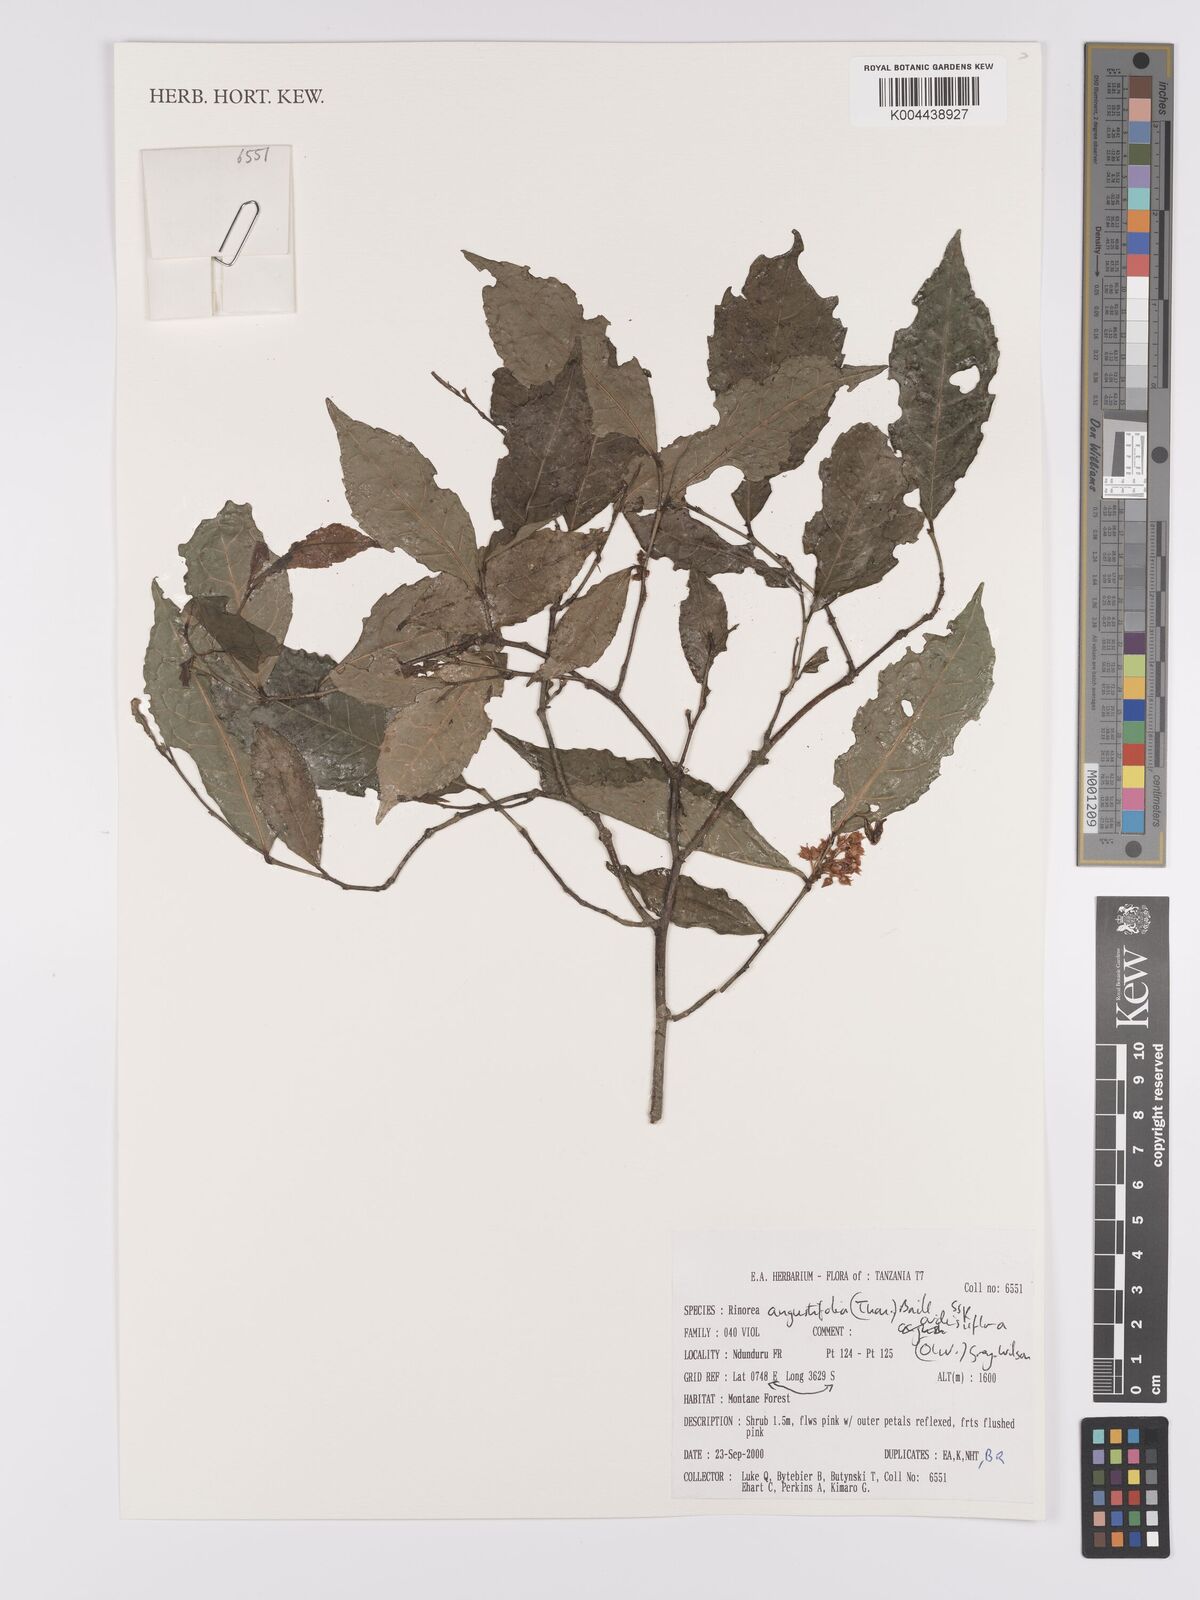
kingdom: Plantae
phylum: Tracheophyta
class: Magnoliopsida
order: Malpighiales
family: Violaceae
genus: Rinorea
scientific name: Rinorea angustifolia
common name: White violet-bush
